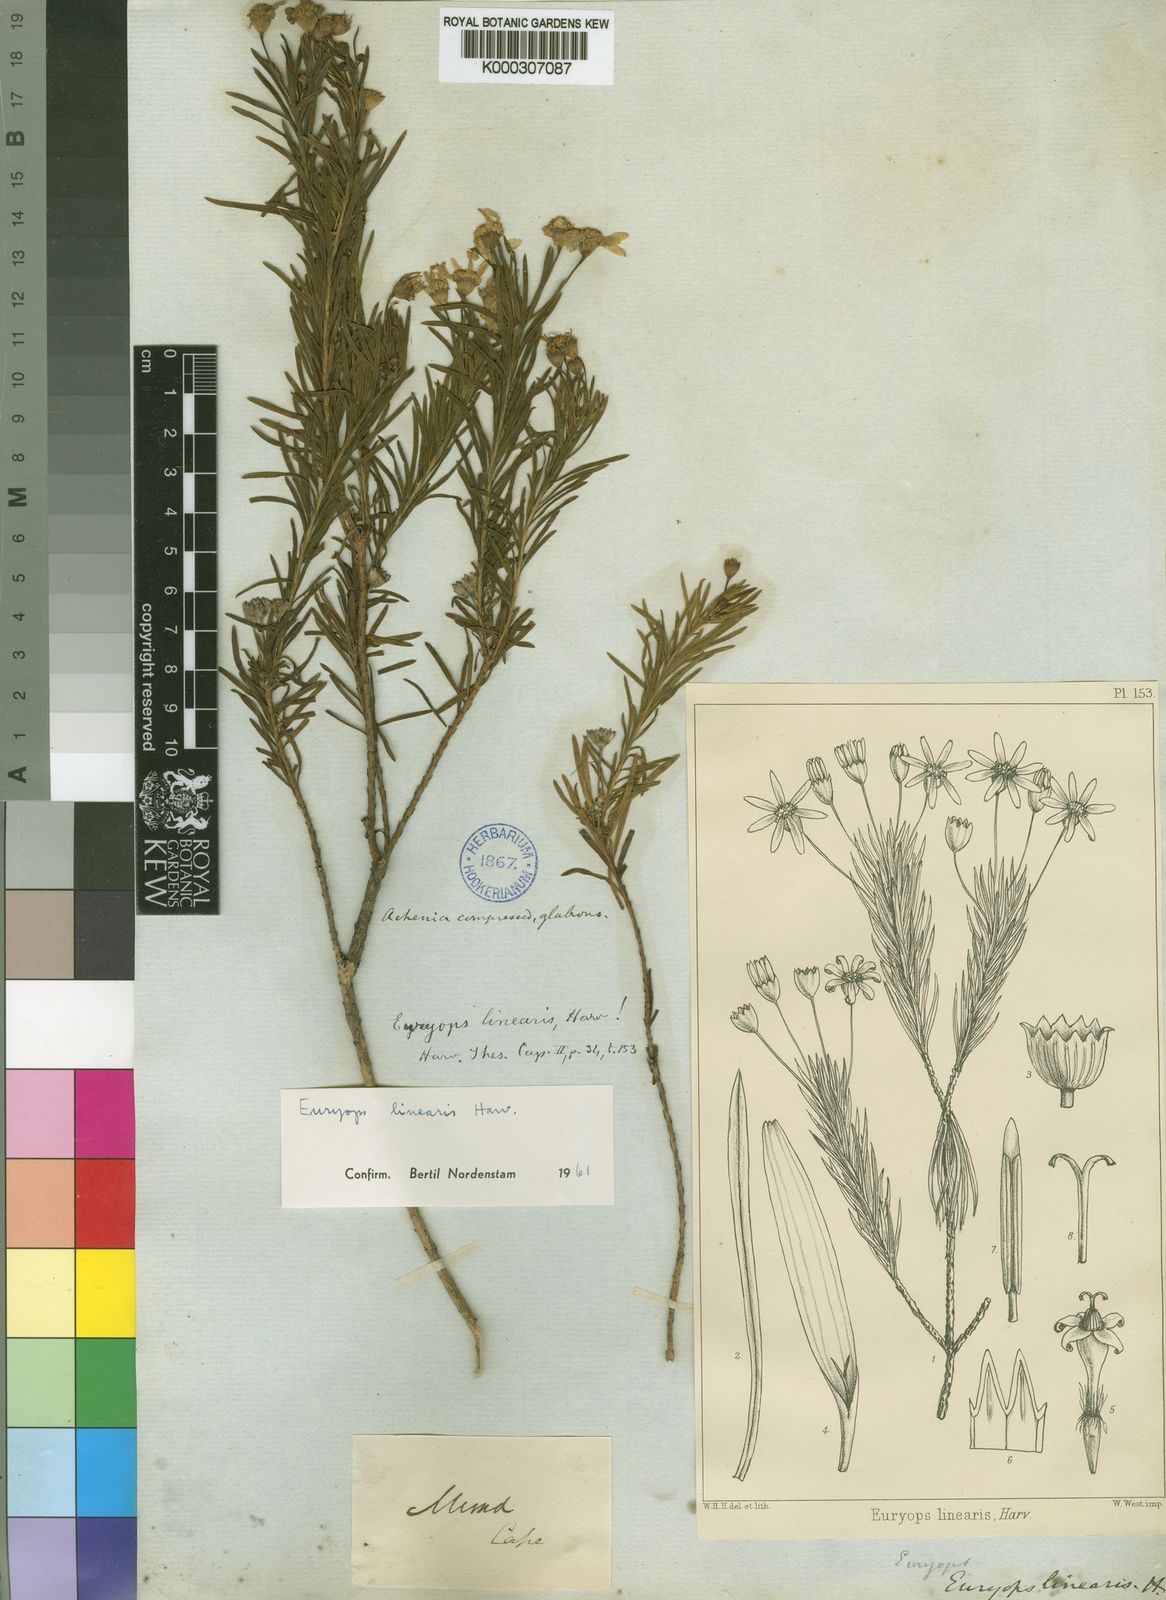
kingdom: Plantae
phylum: Tracheophyta
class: Magnoliopsida
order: Asterales
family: Asteraceae
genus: Euryops
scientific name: Euryops linearis
